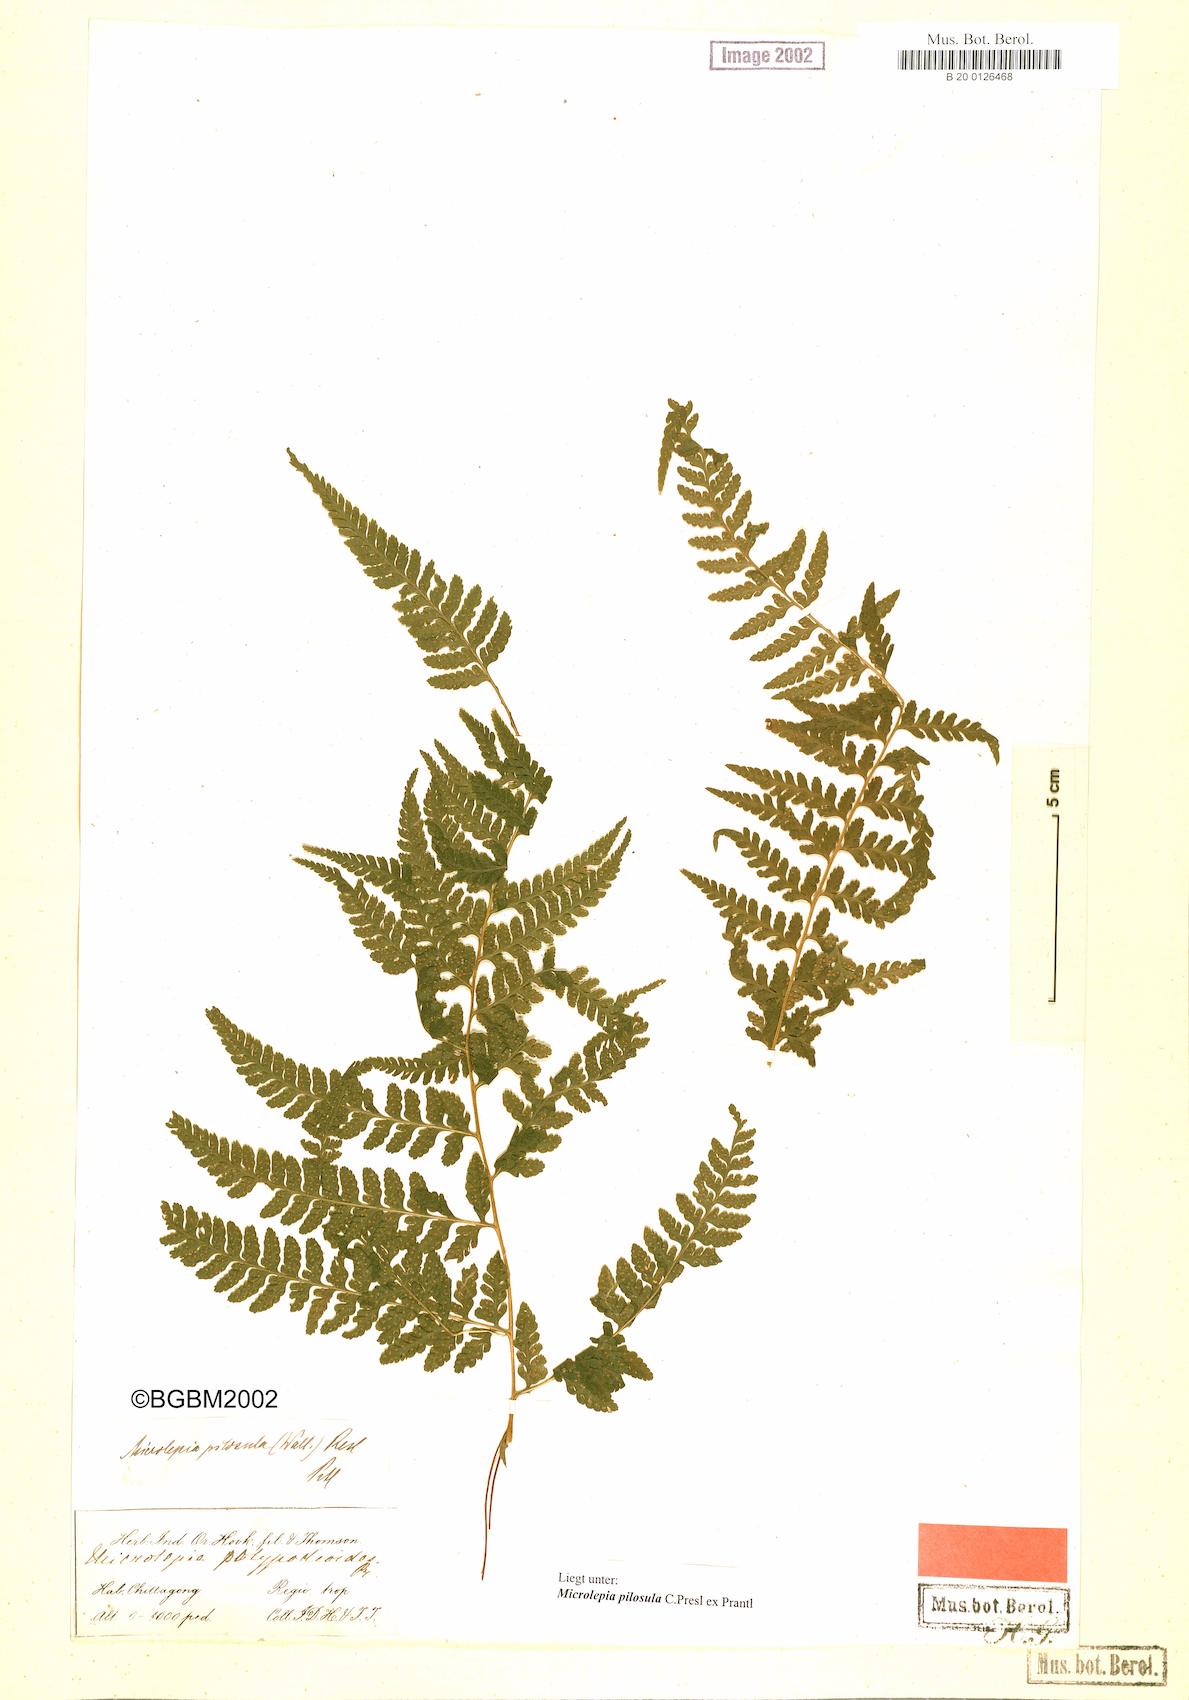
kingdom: Plantae
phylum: Tracheophyta
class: Polypodiopsida
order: Polypodiales
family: Dennstaedtiaceae
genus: Microlepia
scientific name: Microlepia speluncae
